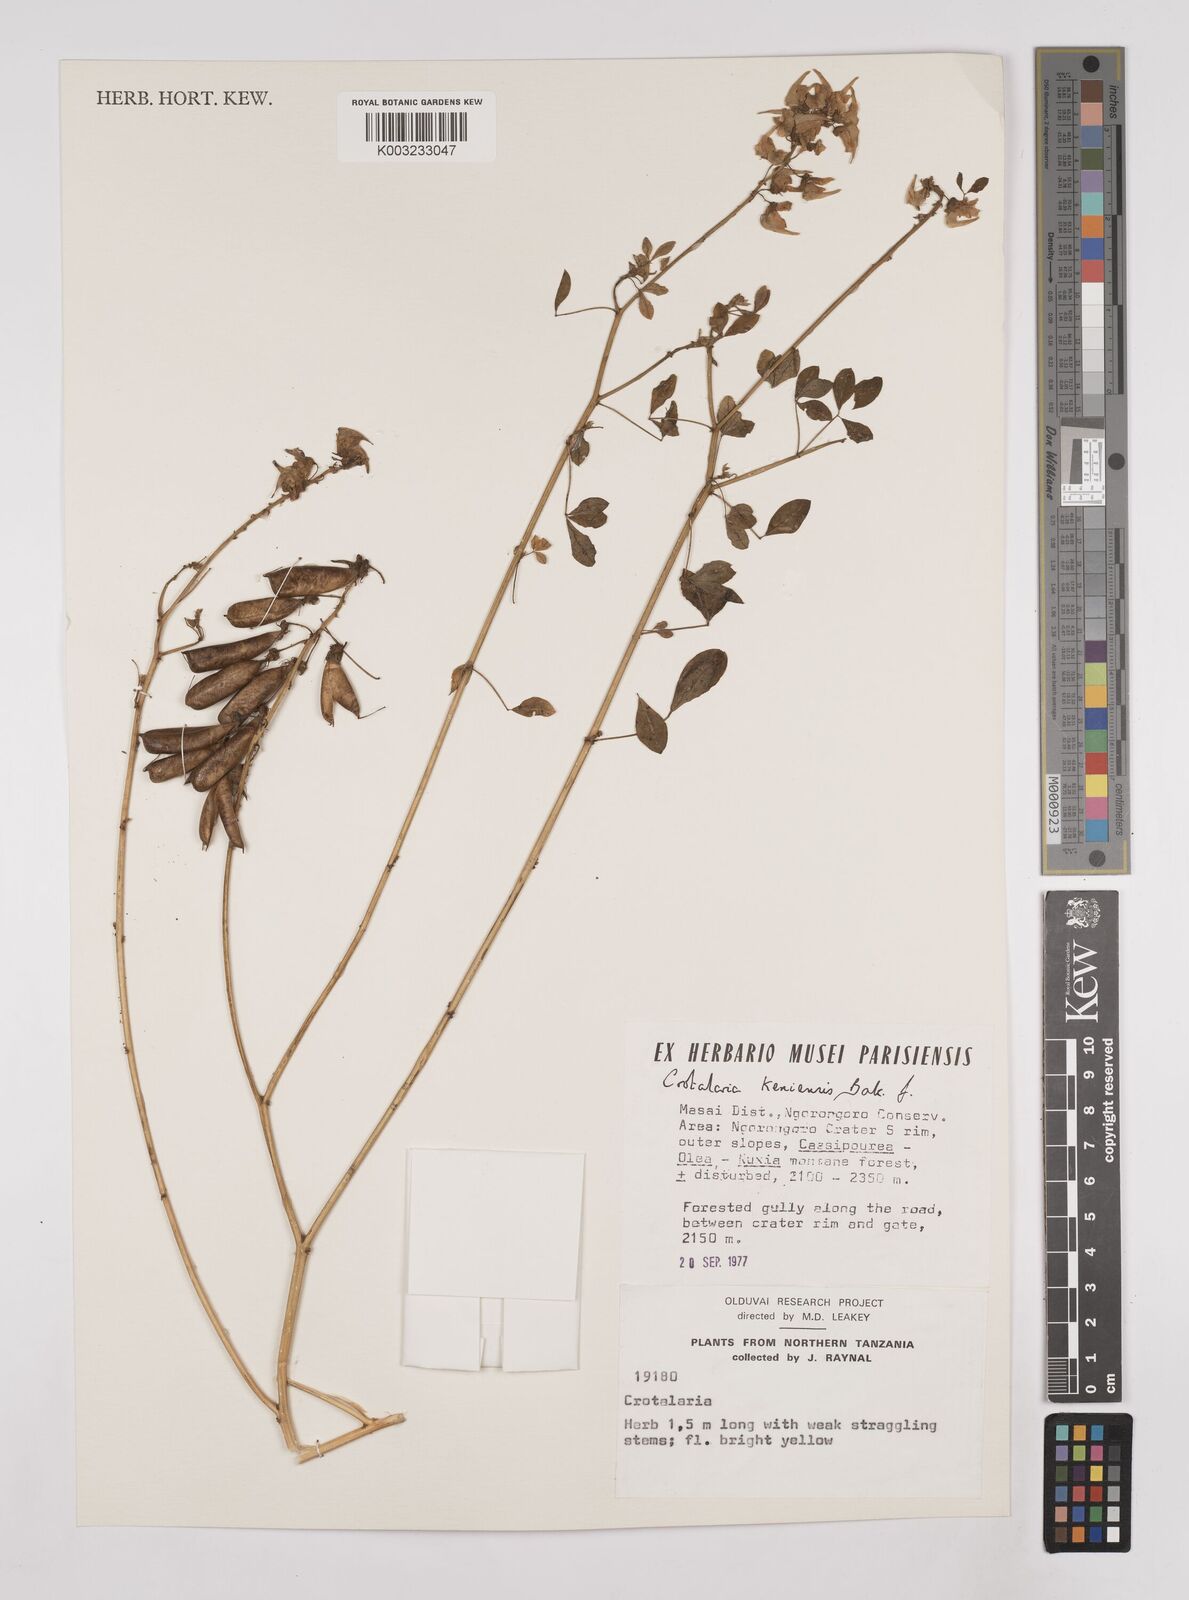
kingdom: Plantae
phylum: Tracheophyta
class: Magnoliopsida
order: Fabales
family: Fabaceae
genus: Crotalaria
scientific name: Crotalaria keniensis
